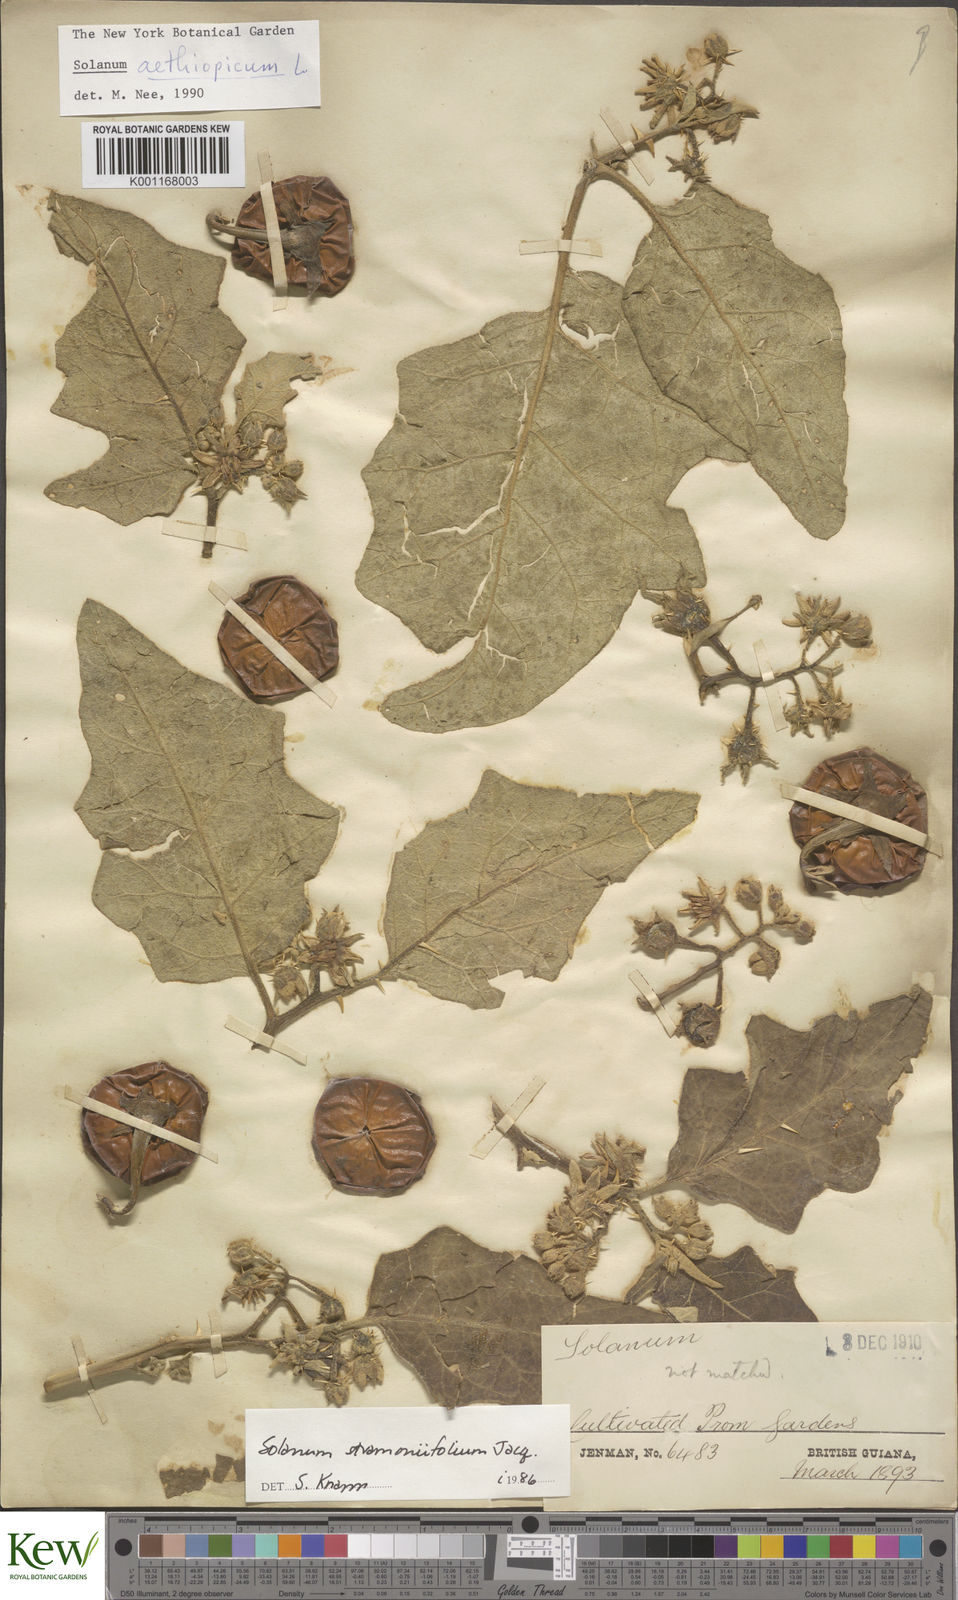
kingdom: Plantae
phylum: Tracheophyta
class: Magnoliopsida
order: Solanales
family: Solanaceae
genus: Solanum
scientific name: Solanum aethiopicum
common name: Gilo
